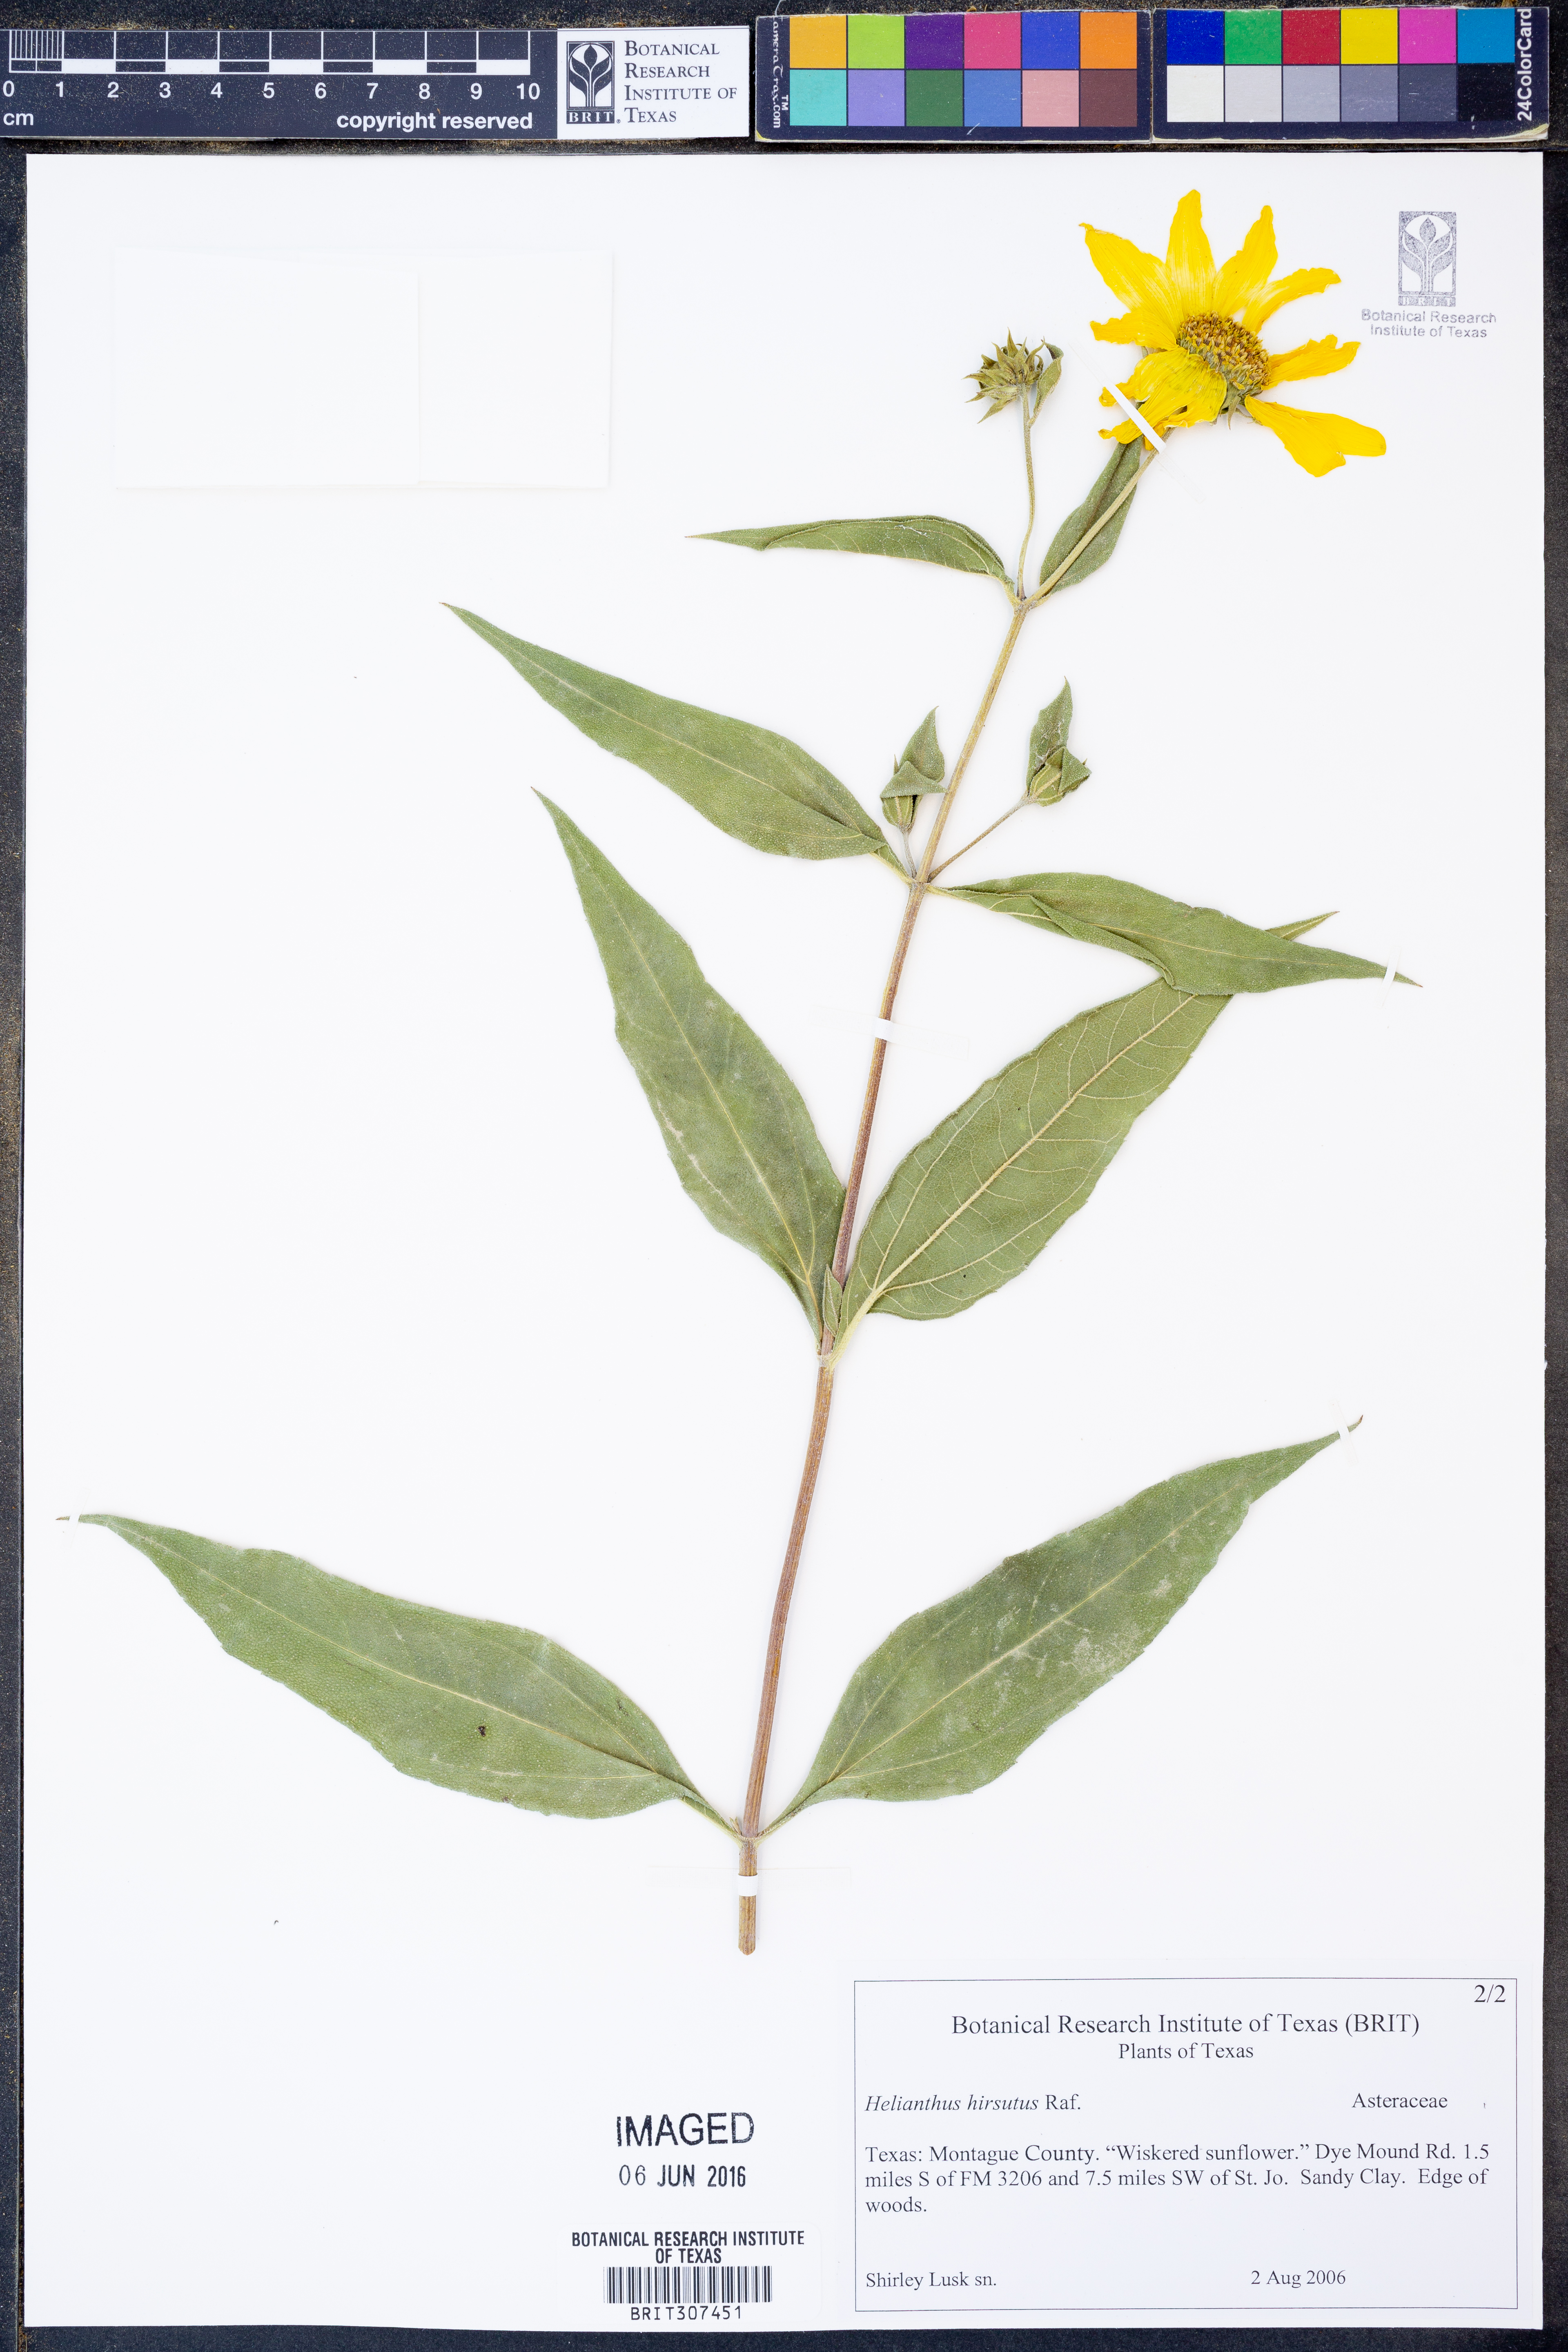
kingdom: Plantae
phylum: Tracheophyta
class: Magnoliopsida
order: Asterales
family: Asteraceae
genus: Helianthus
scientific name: Helianthus hirsutus
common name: Hairy sunflower
